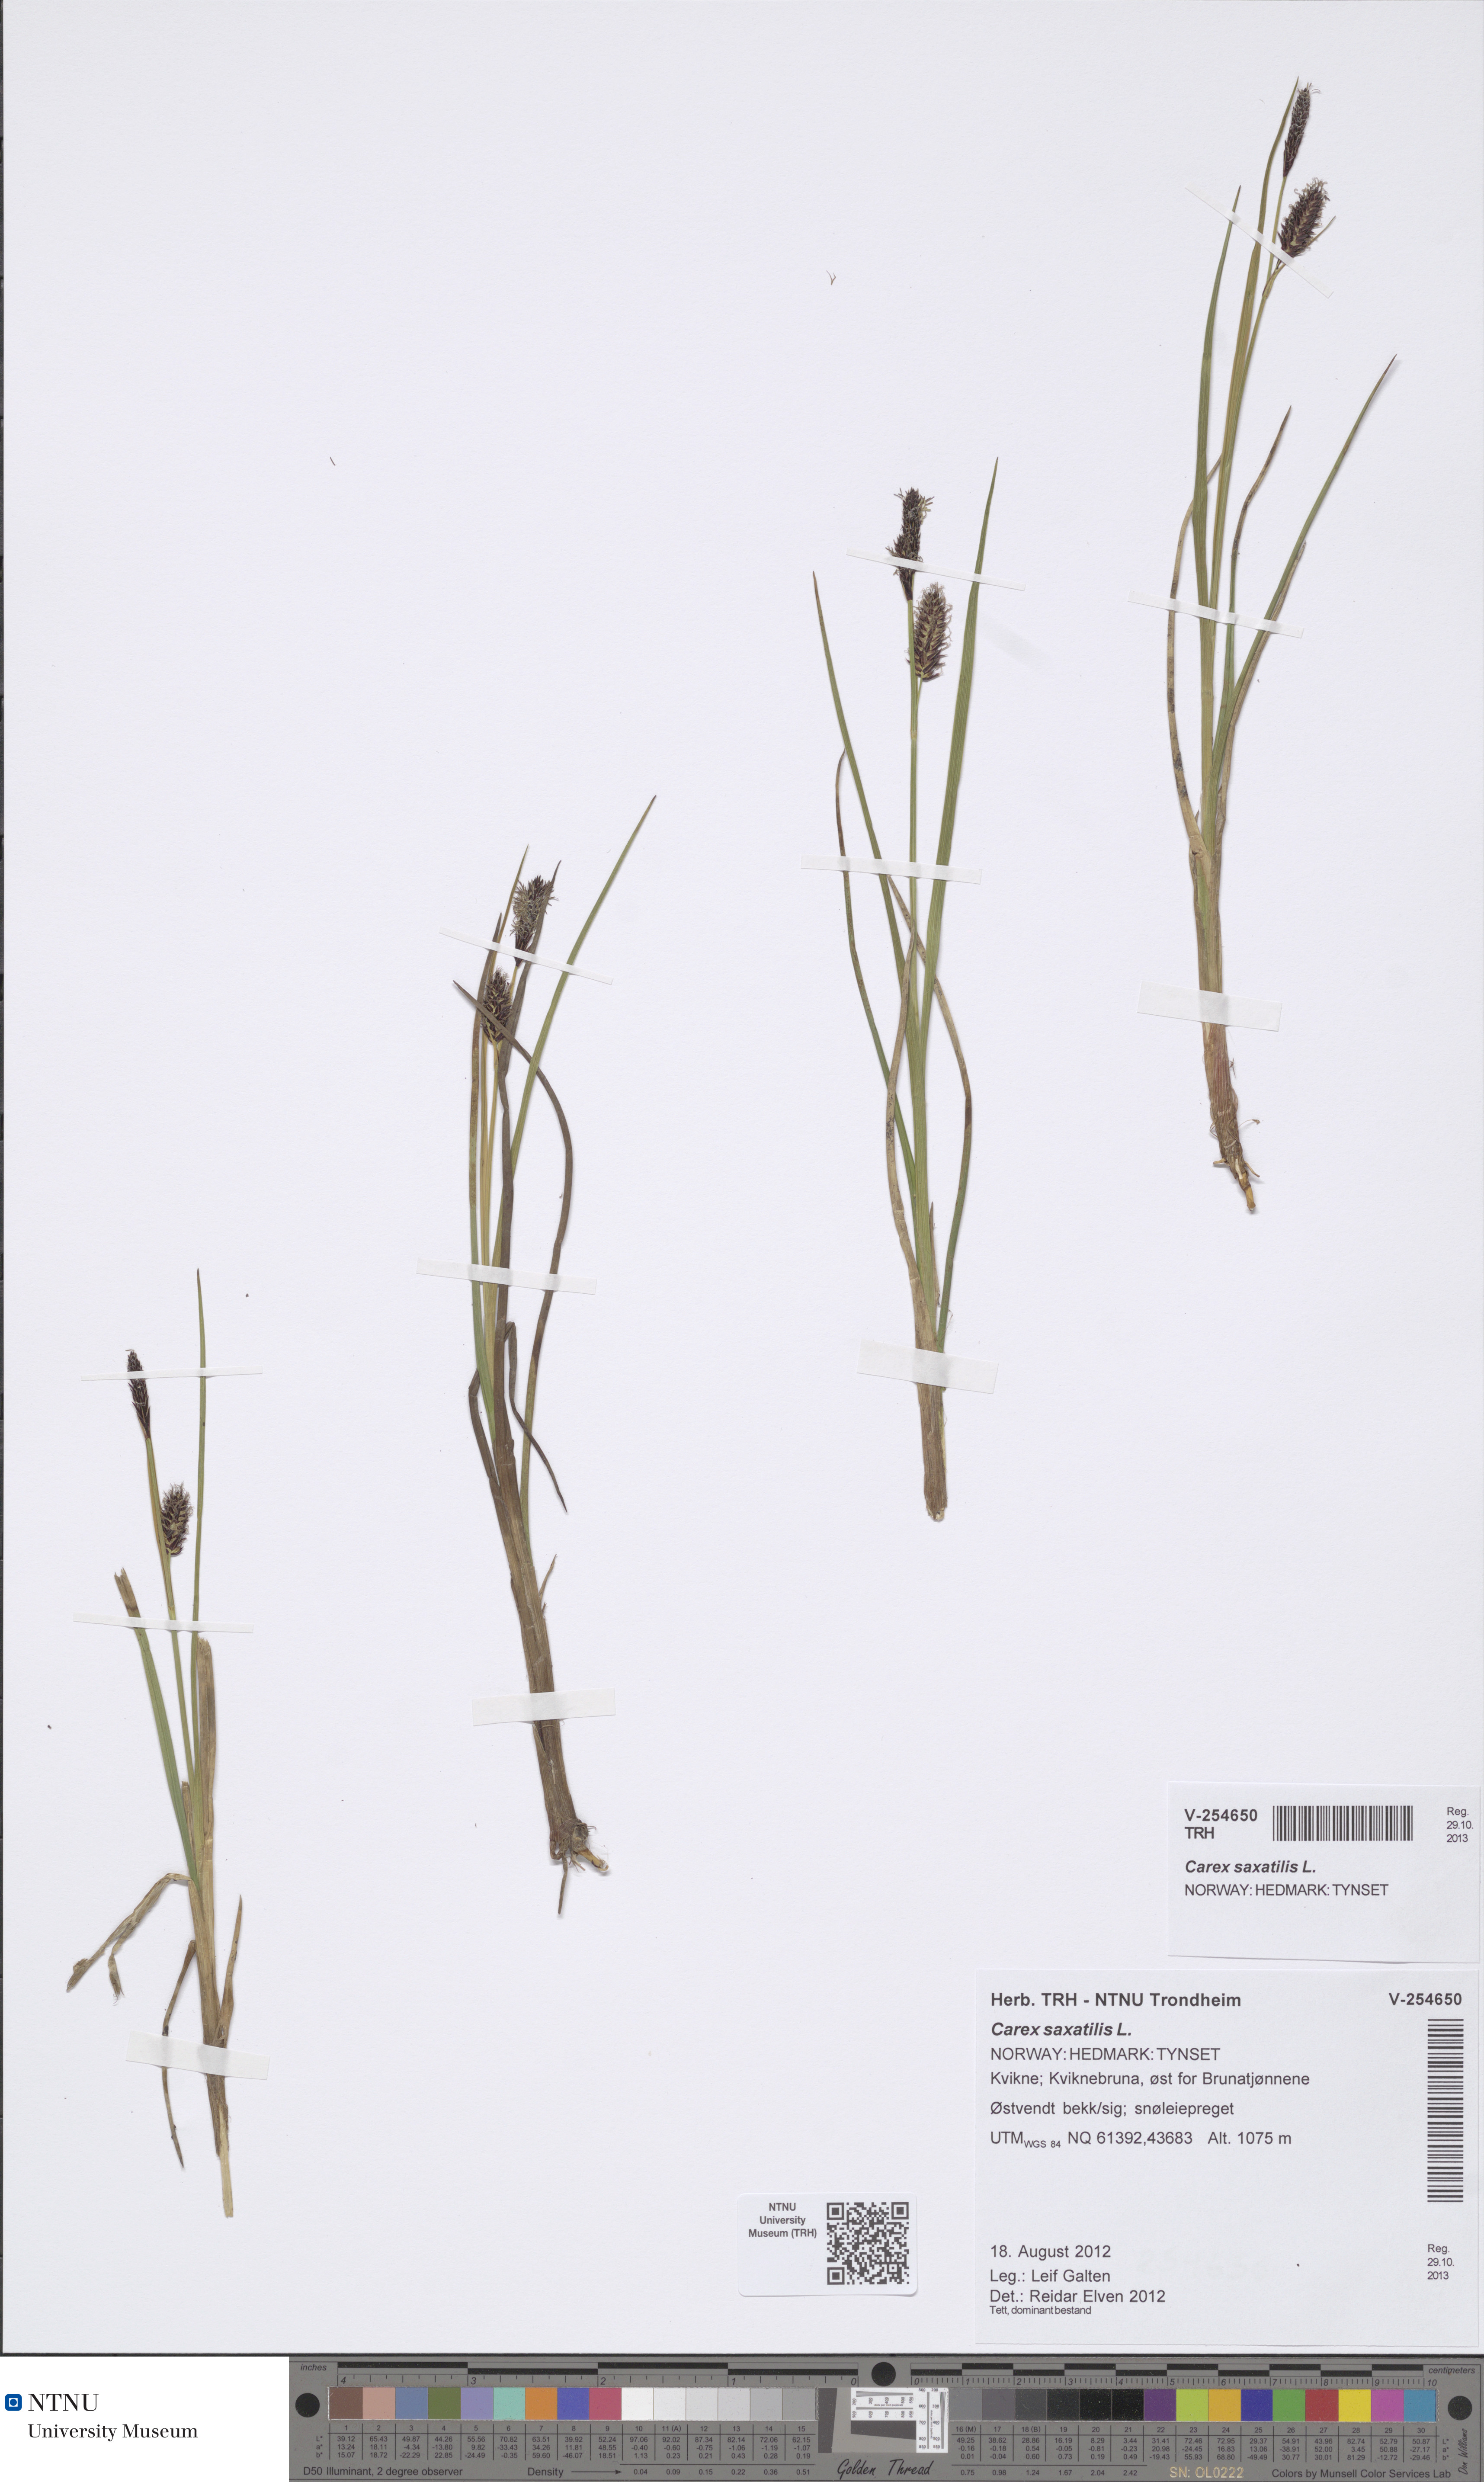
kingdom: Plantae
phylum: Tracheophyta
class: Liliopsida
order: Poales
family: Cyperaceae
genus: Carex
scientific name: Carex saxatilis
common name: Russet sedge
